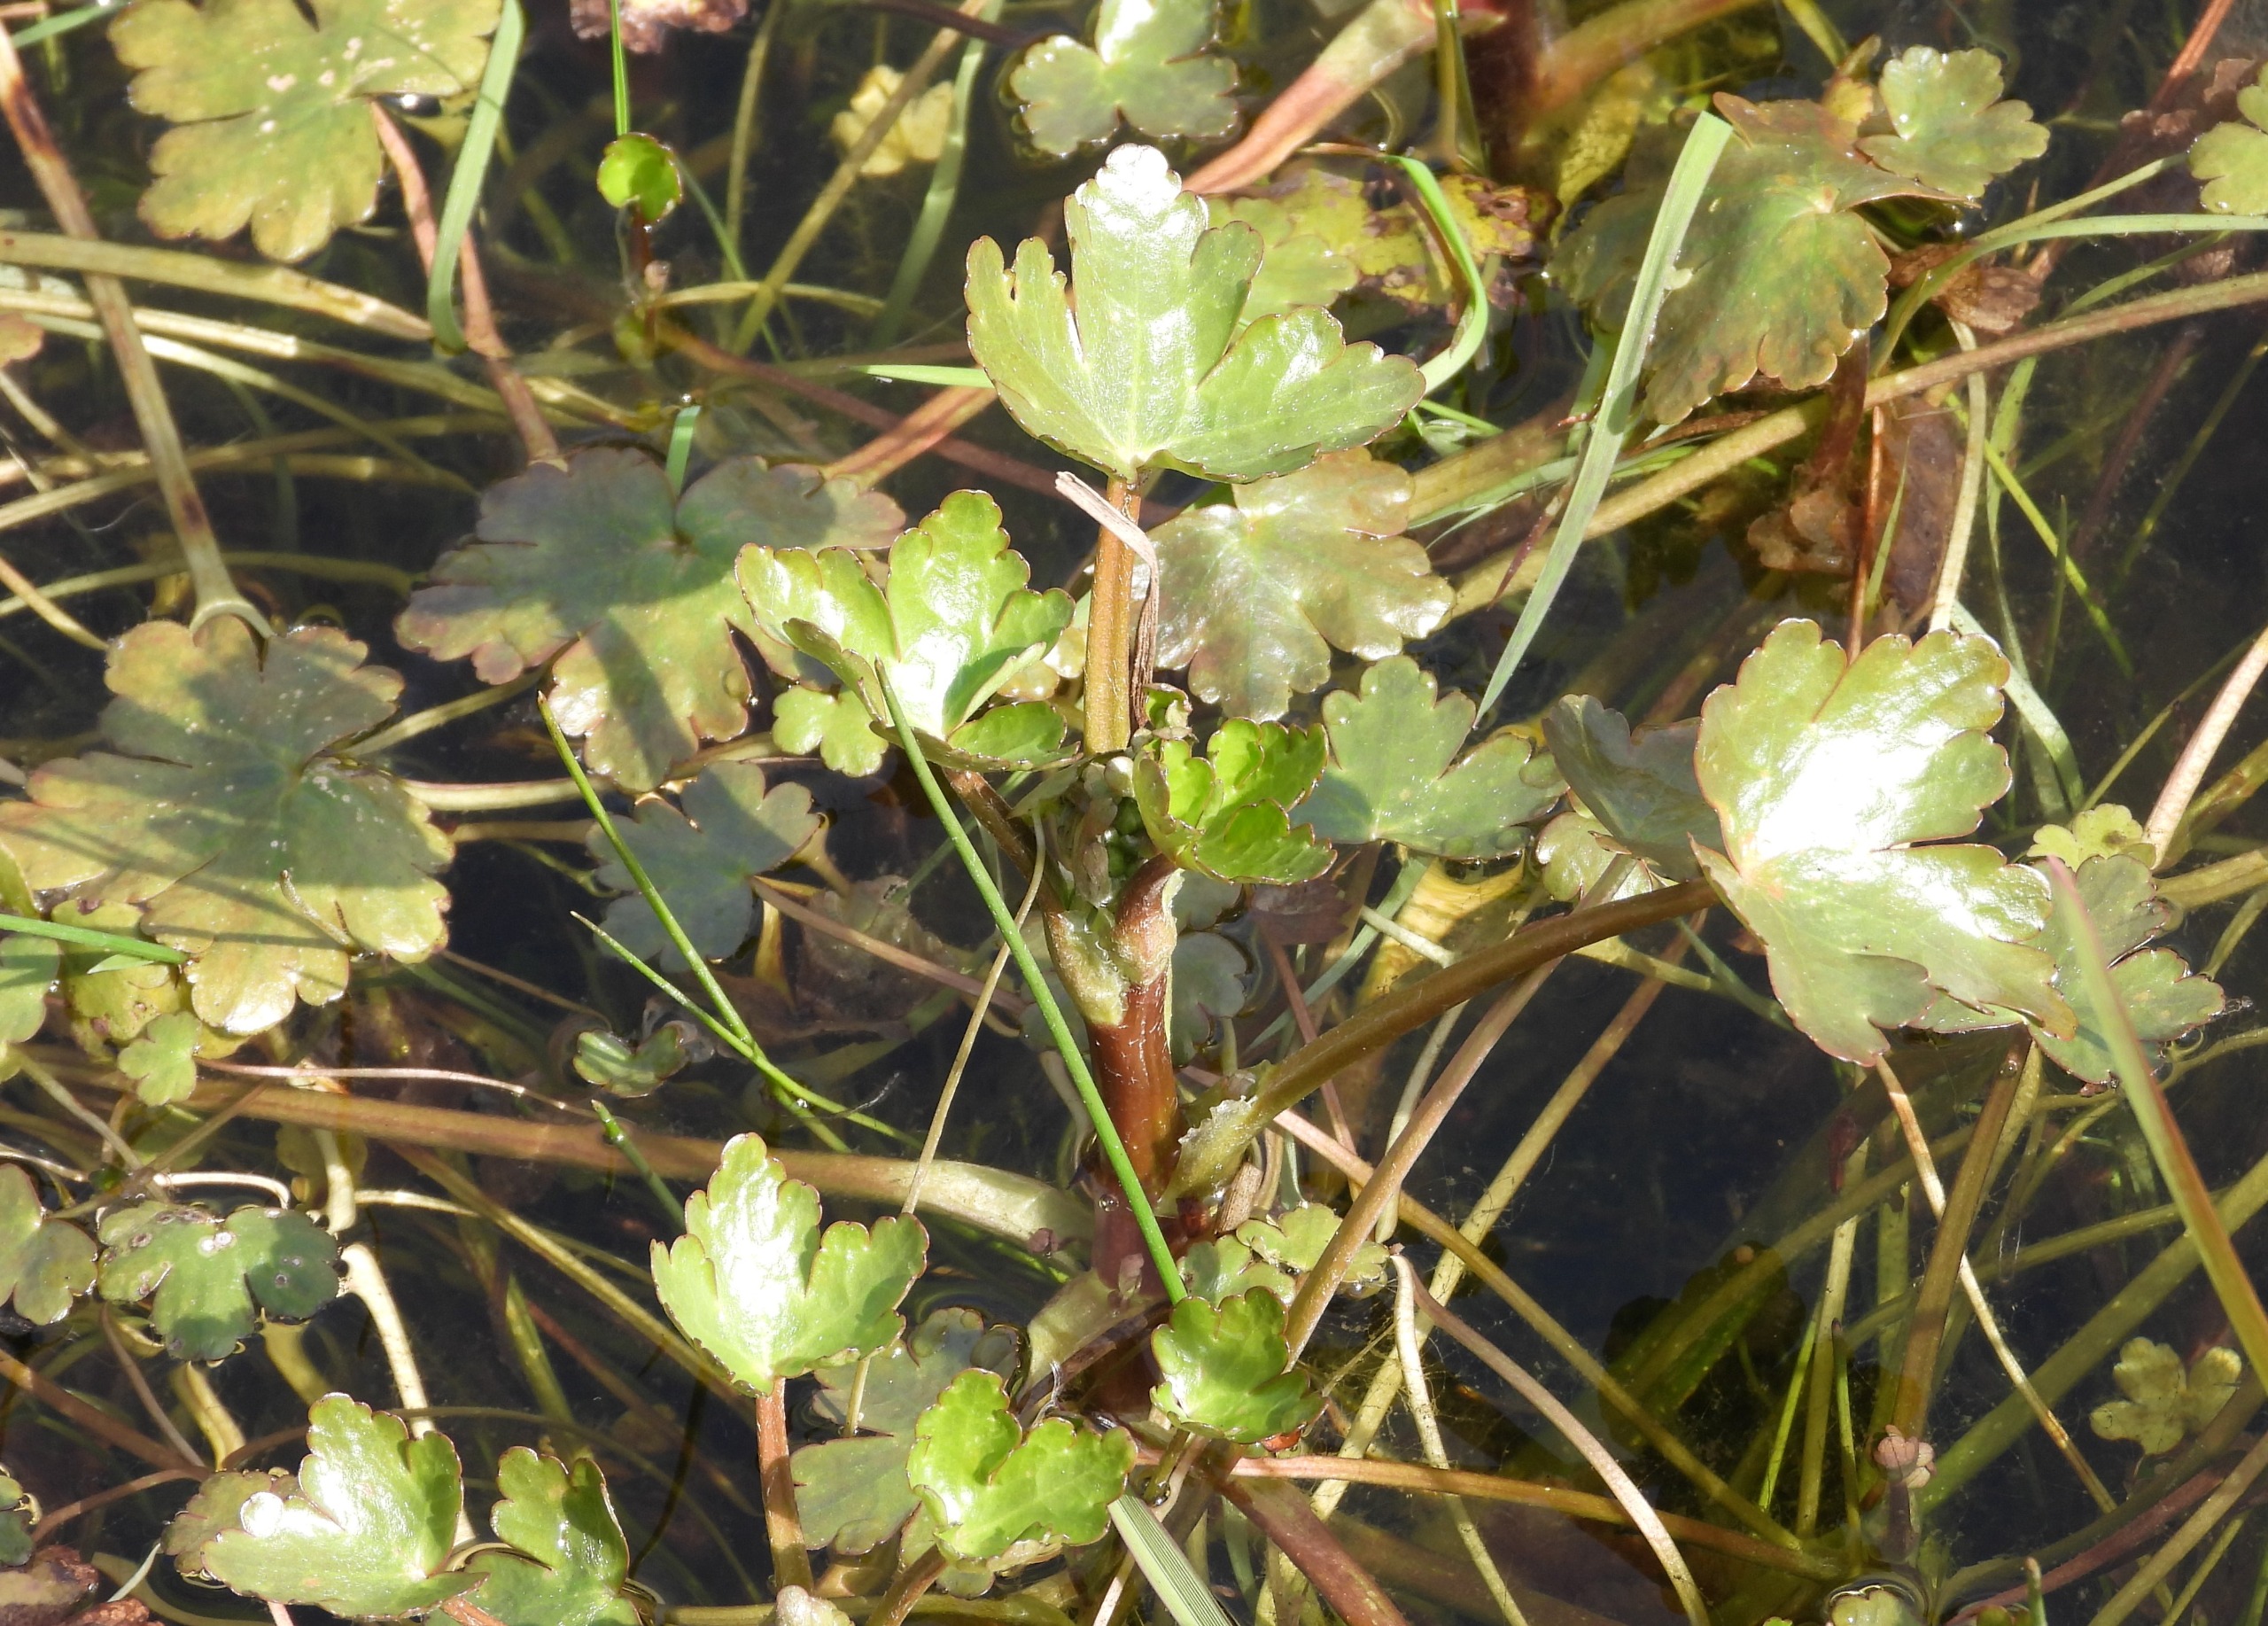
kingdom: Plantae
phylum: Tracheophyta
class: Magnoliopsida
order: Ranunculales
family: Ranunculaceae
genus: Ranunculus
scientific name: Ranunculus sceleratus
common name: Tigger-ranunkel
